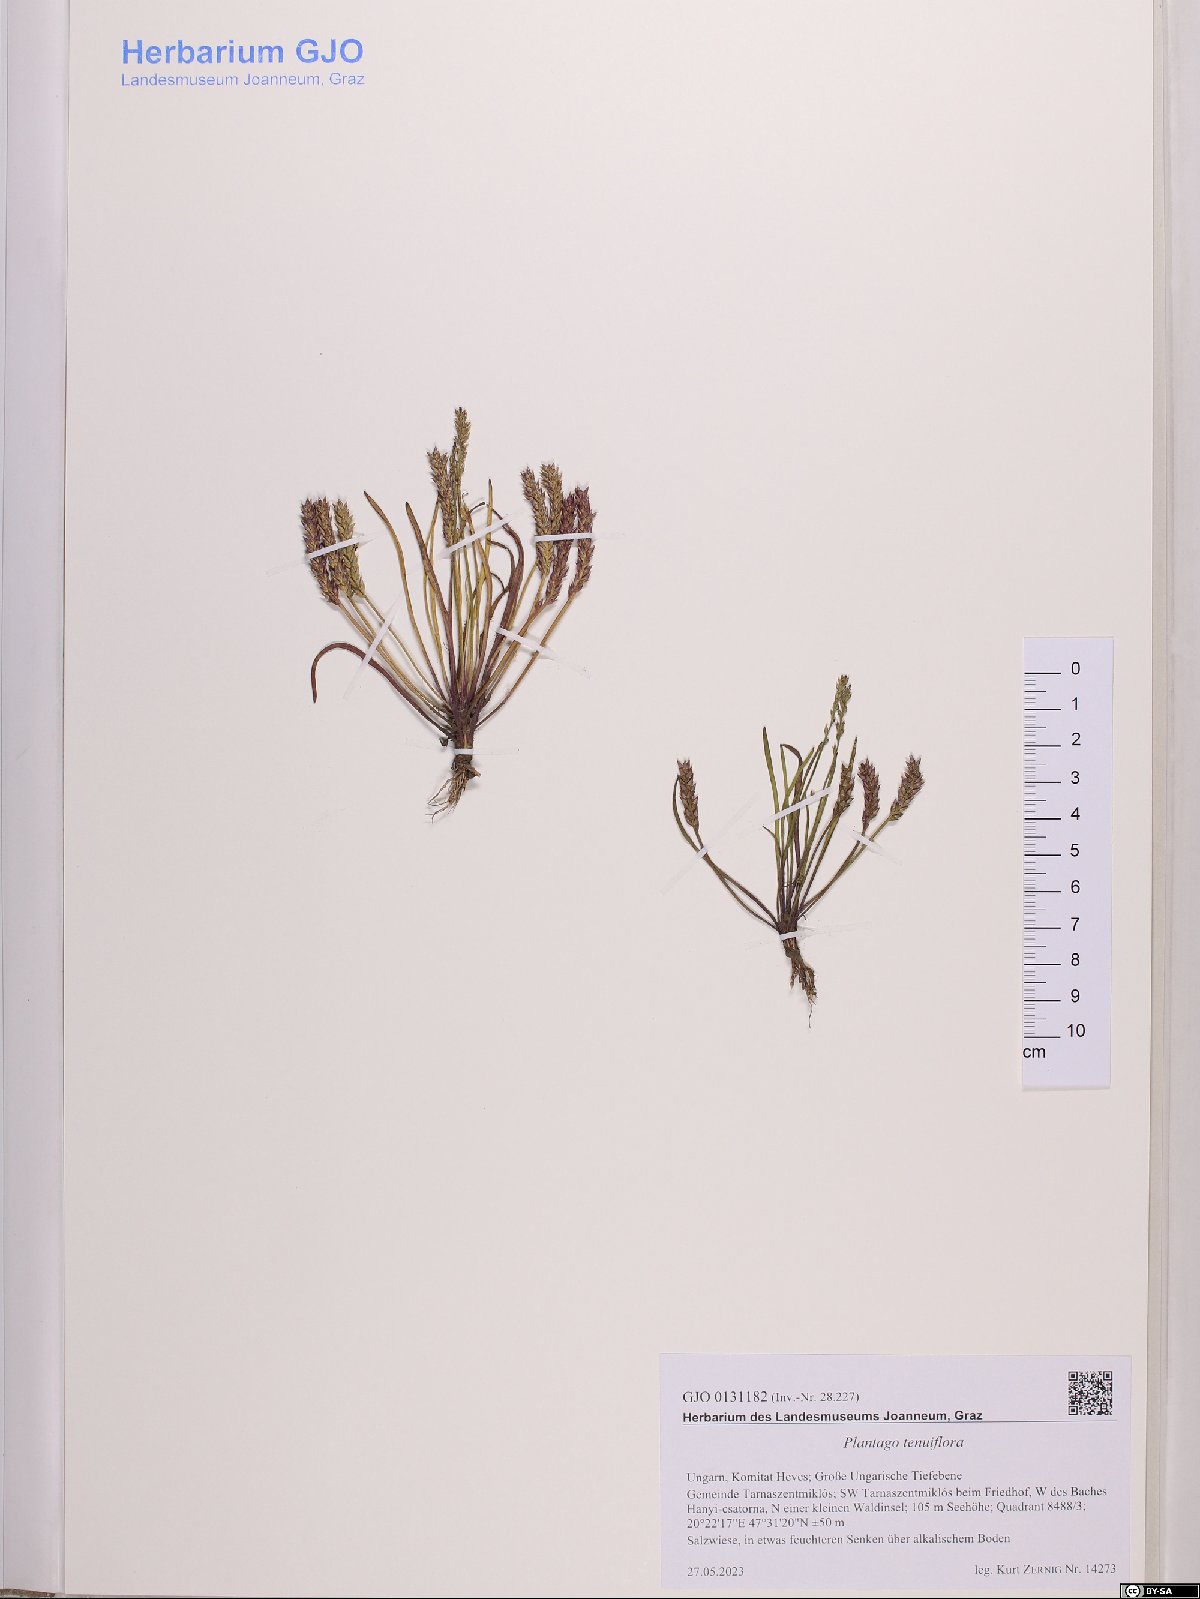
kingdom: Plantae
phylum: Tracheophyta
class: Magnoliopsida
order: Lamiales
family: Plantaginaceae
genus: Plantago
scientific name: Plantago tenuiflora
